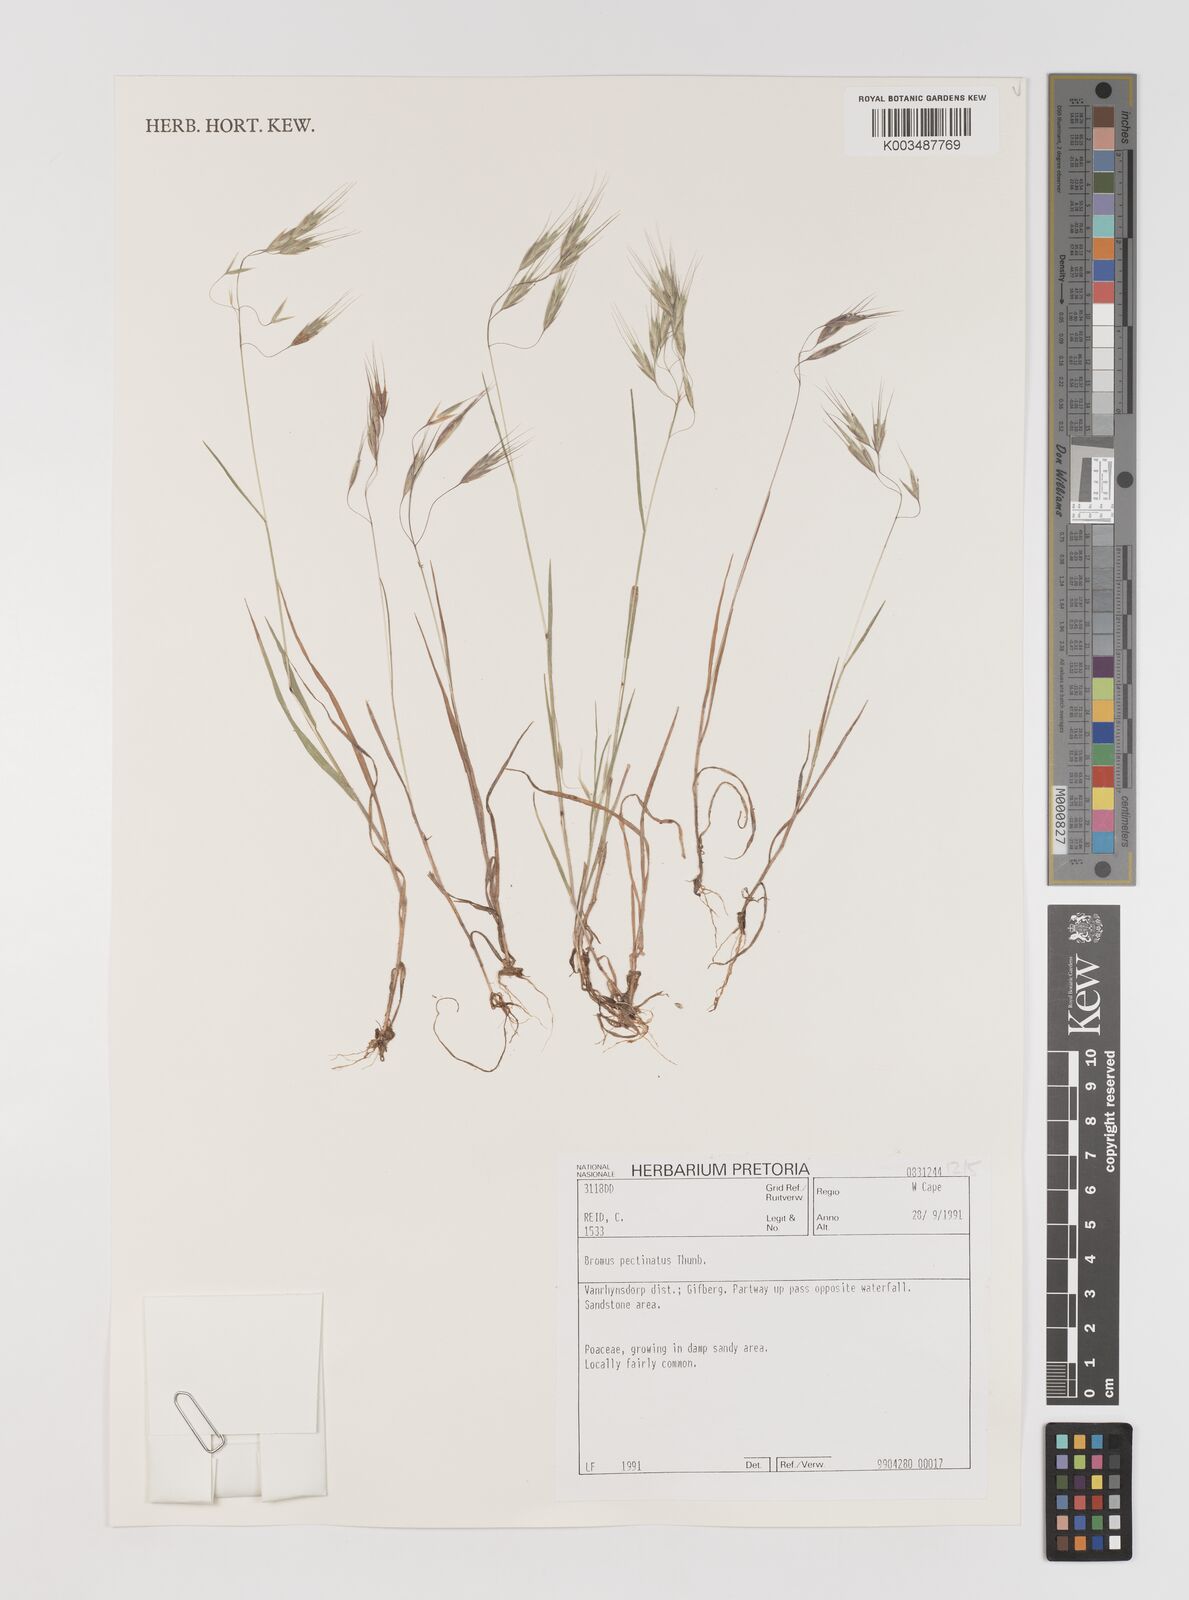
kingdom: Plantae
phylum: Tracheophyta
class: Liliopsida
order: Poales
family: Poaceae
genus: Bromus
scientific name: Bromus pectinatus
